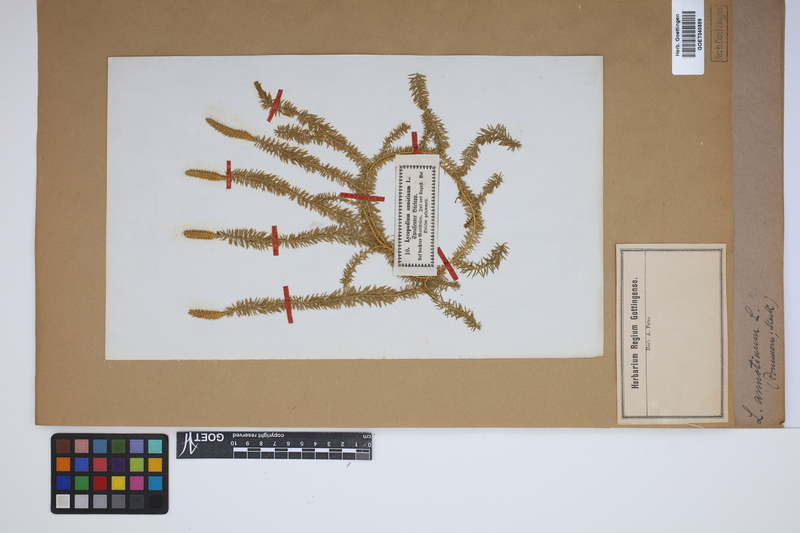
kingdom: Plantae
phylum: Tracheophyta
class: Lycopodiopsida
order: Lycopodiales
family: Lycopodiaceae
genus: Spinulum
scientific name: Spinulum annotinum
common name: Interrupted club-moss
